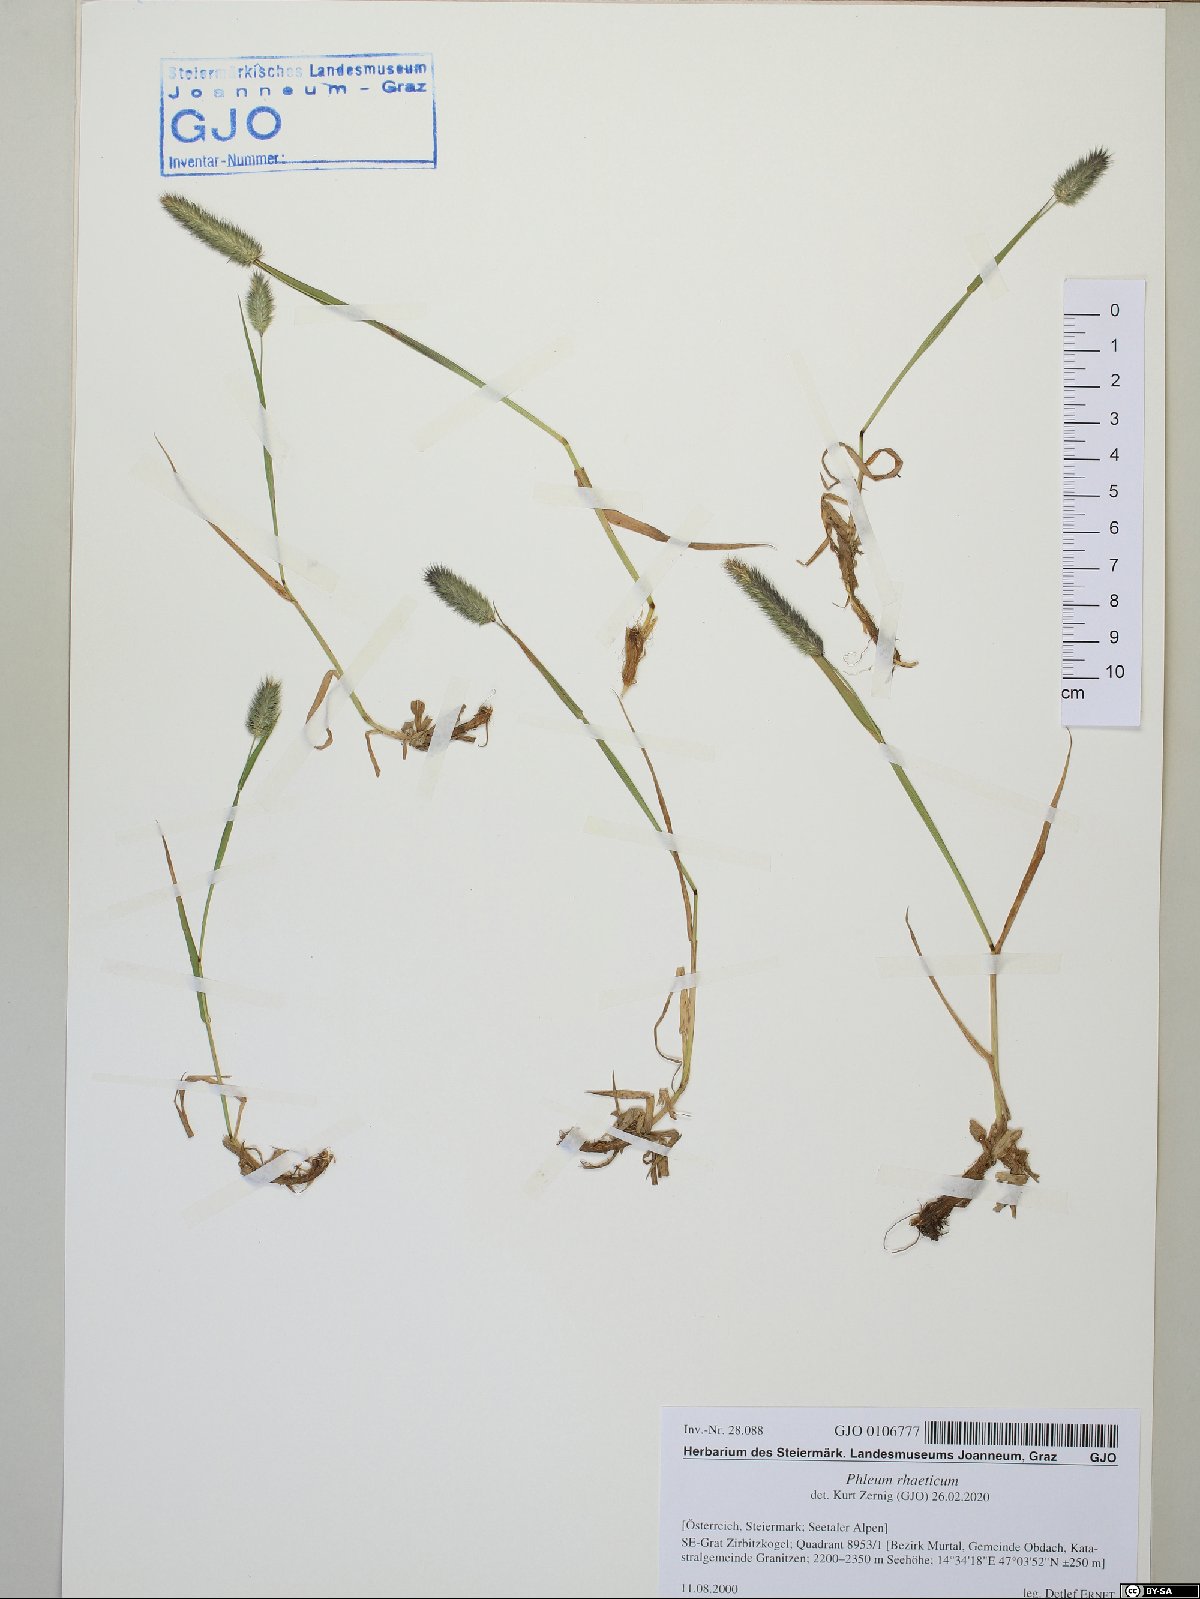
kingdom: Plantae
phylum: Tracheophyta
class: Liliopsida
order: Poales
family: Poaceae
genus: Phleum
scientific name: Phleum alpinum
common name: Alpine cat's-tail
